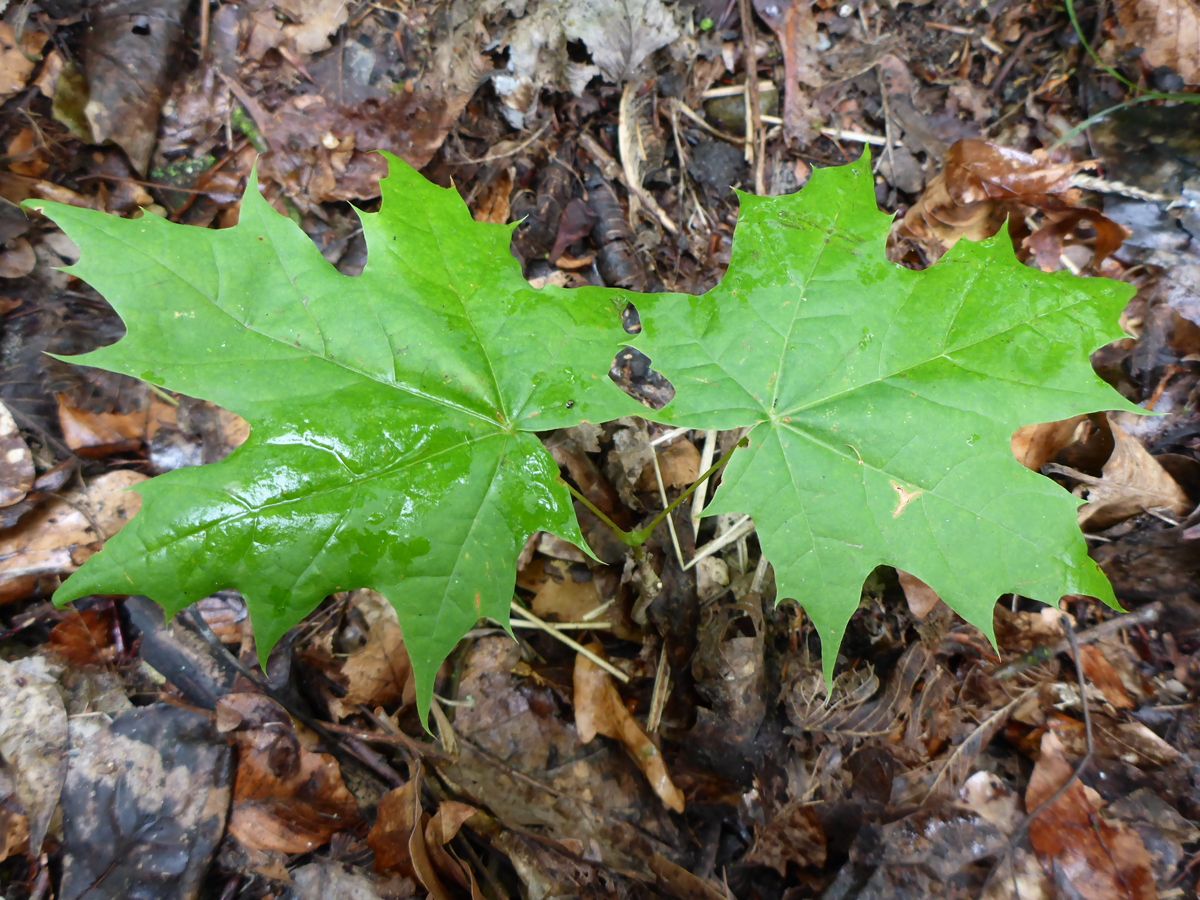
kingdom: Plantae
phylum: Tracheophyta
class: Magnoliopsida
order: Sapindales
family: Sapindaceae
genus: Acer
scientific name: Acer platanoides
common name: Norway maple
